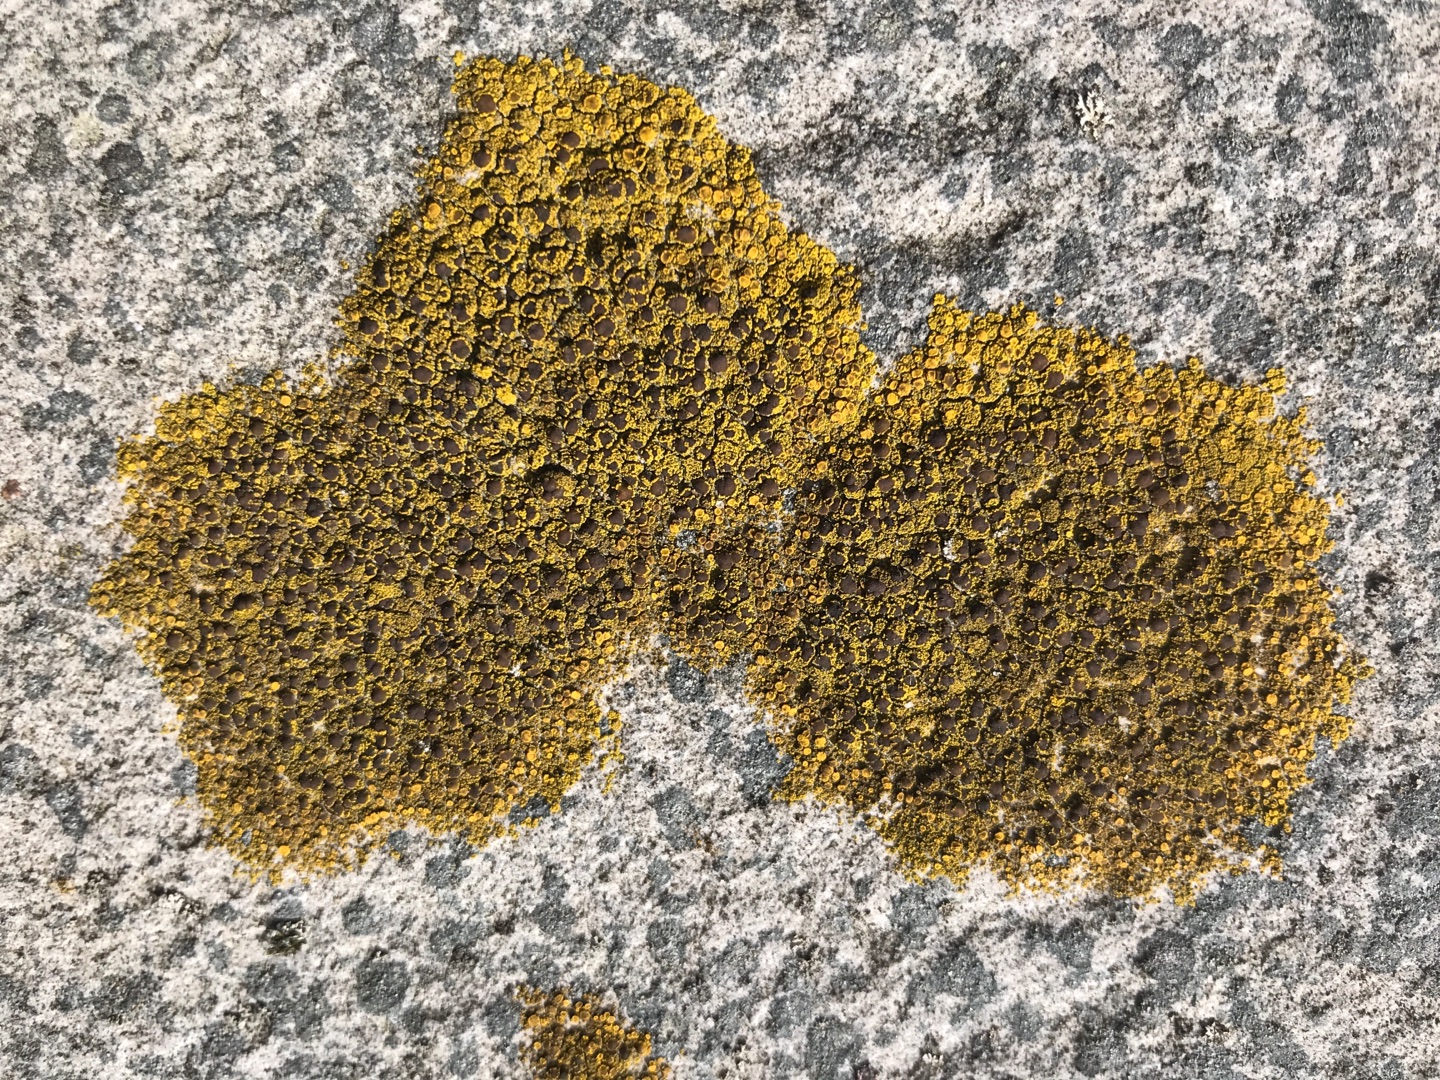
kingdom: Fungi
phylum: Ascomycota
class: Candelariomycetes
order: Candelariales
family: Candelariaceae
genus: Candelariella
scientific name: Candelariella vitellina
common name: Almindelig æggeblommelav
